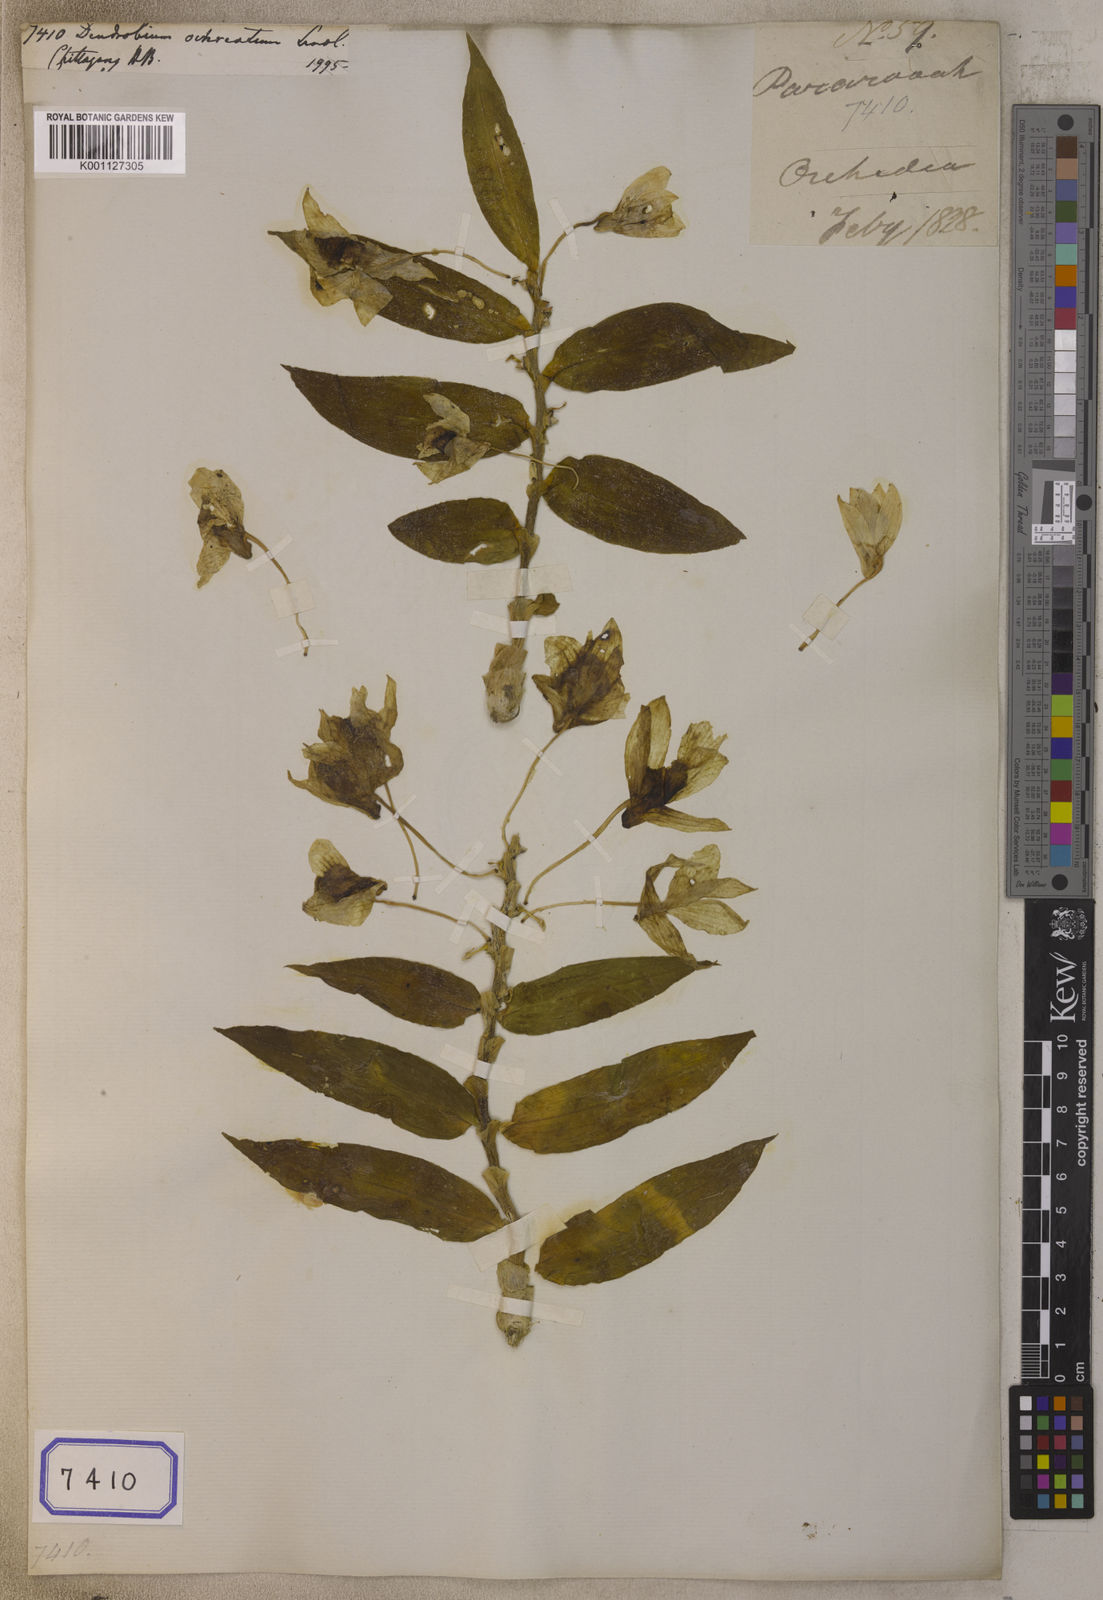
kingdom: Plantae
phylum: Tracheophyta
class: Liliopsida
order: Asparagales
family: Orchidaceae
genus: Dendrobium
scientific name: Dendrobium ochreatum
